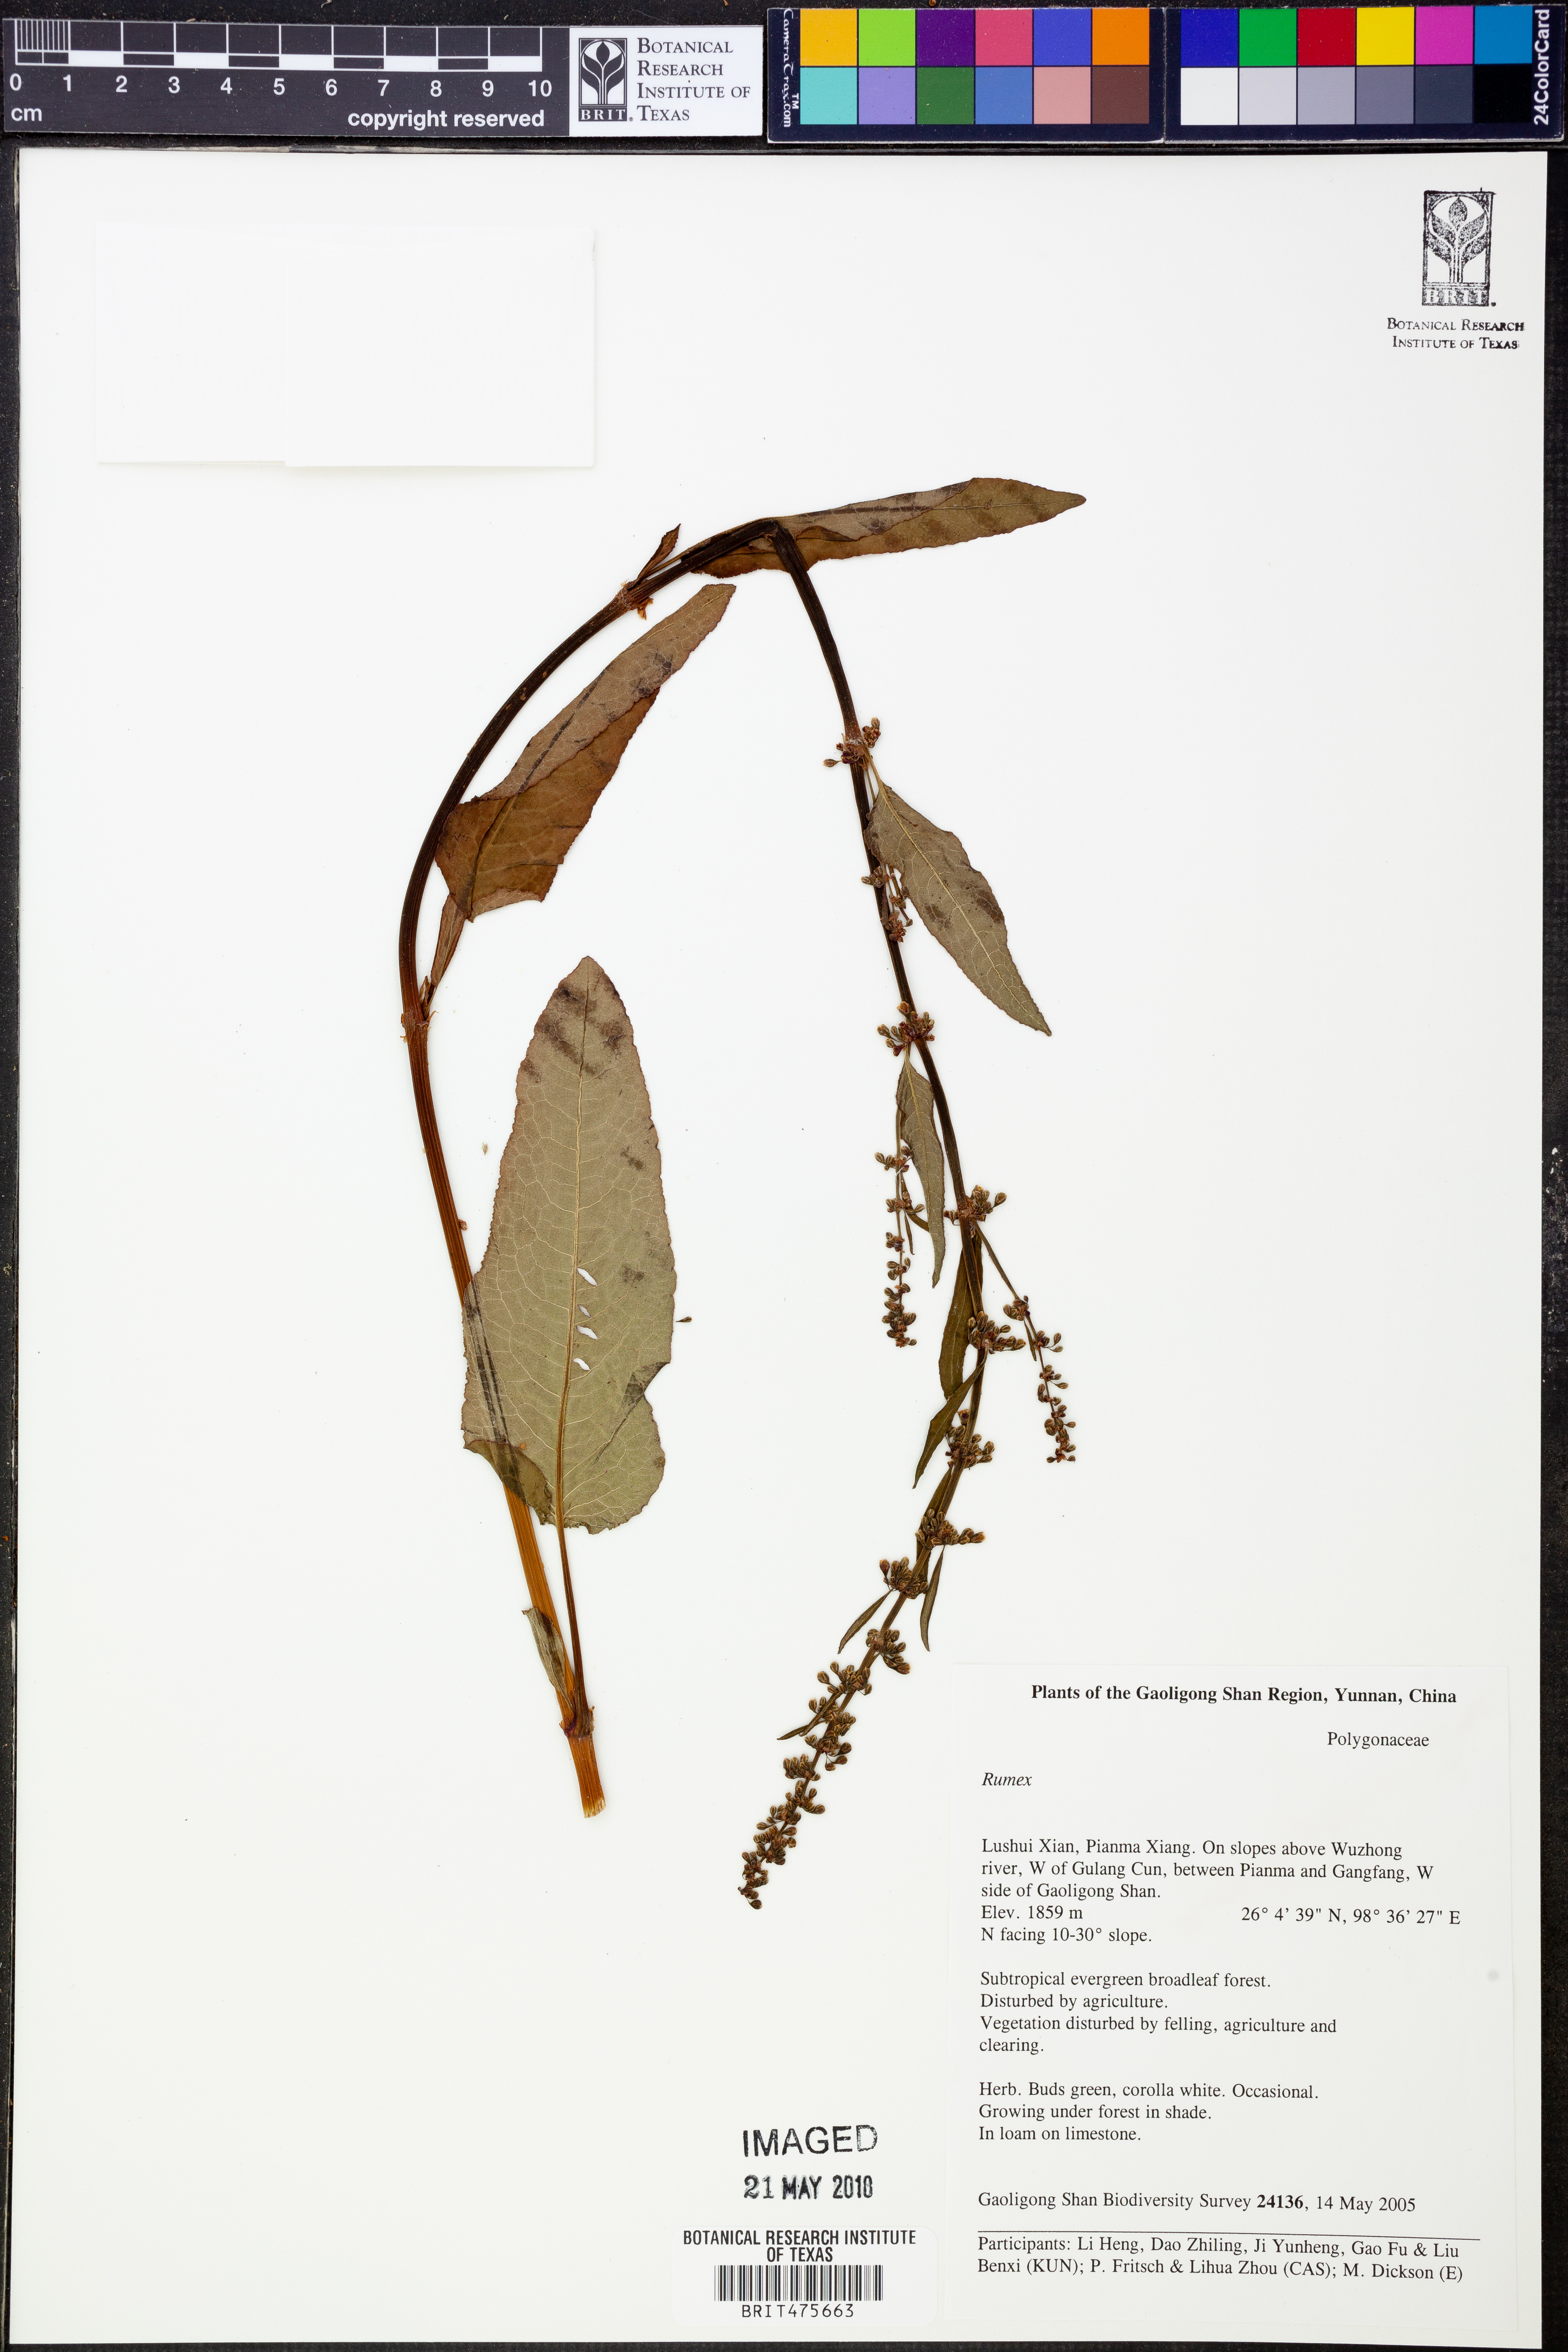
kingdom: Plantae
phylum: Tracheophyta
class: Magnoliopsida
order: Caryophyllales
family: Polygonaceae
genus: Rumex
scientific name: Rumex
